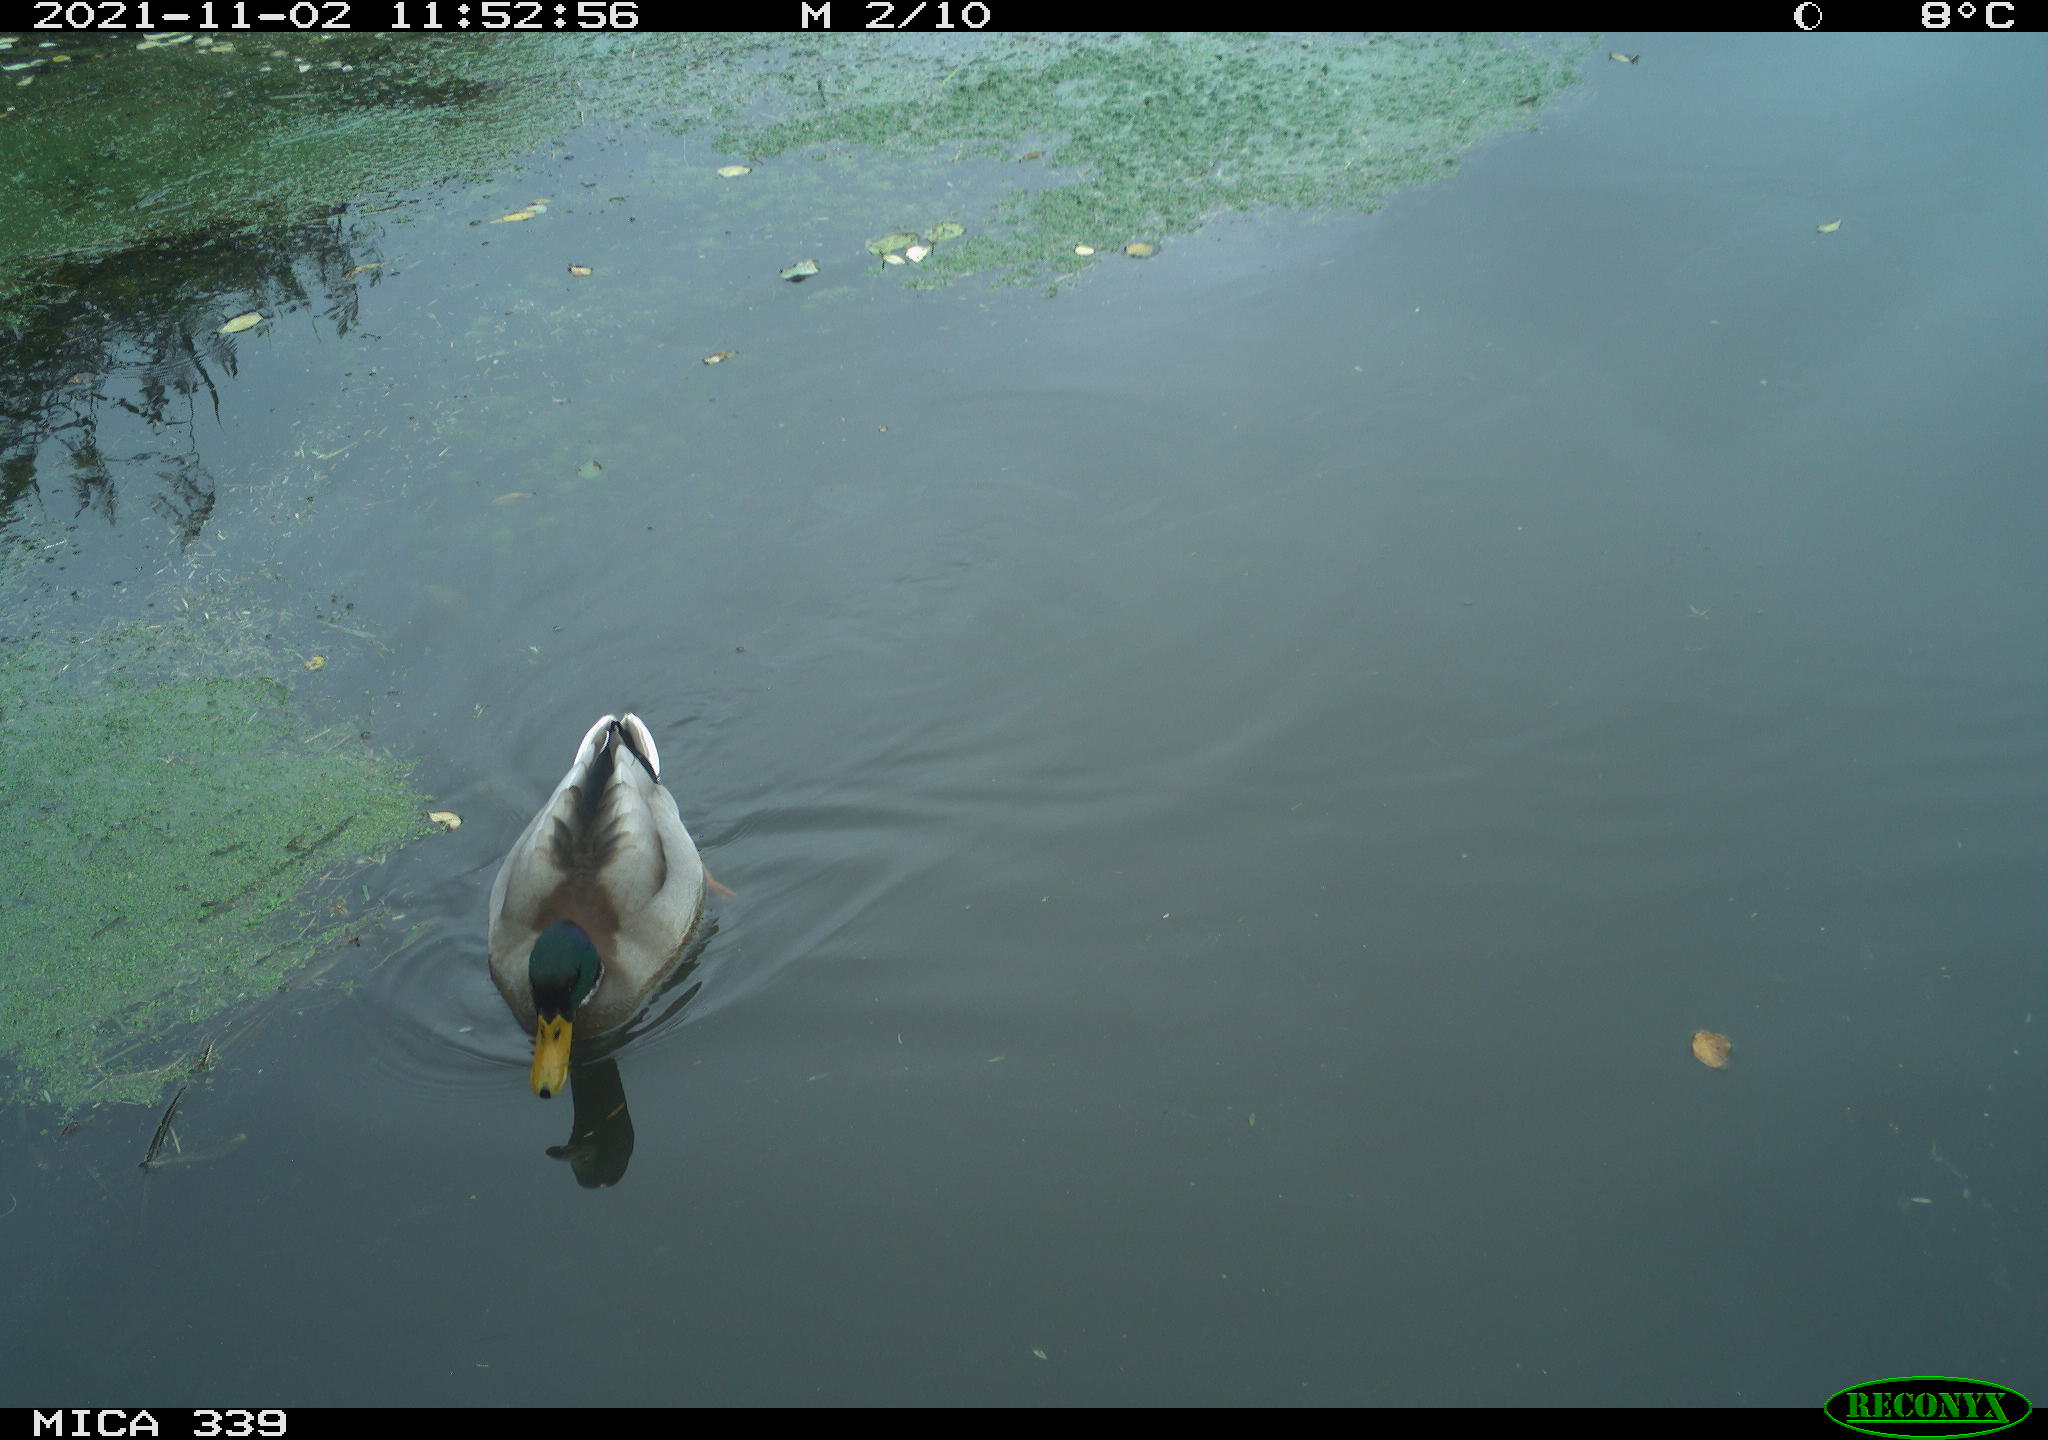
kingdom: Animalia
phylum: Chordata
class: Aves
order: Anseriformes
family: Anatidae
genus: Anas
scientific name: Anas platyrhynchos
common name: Mallard
